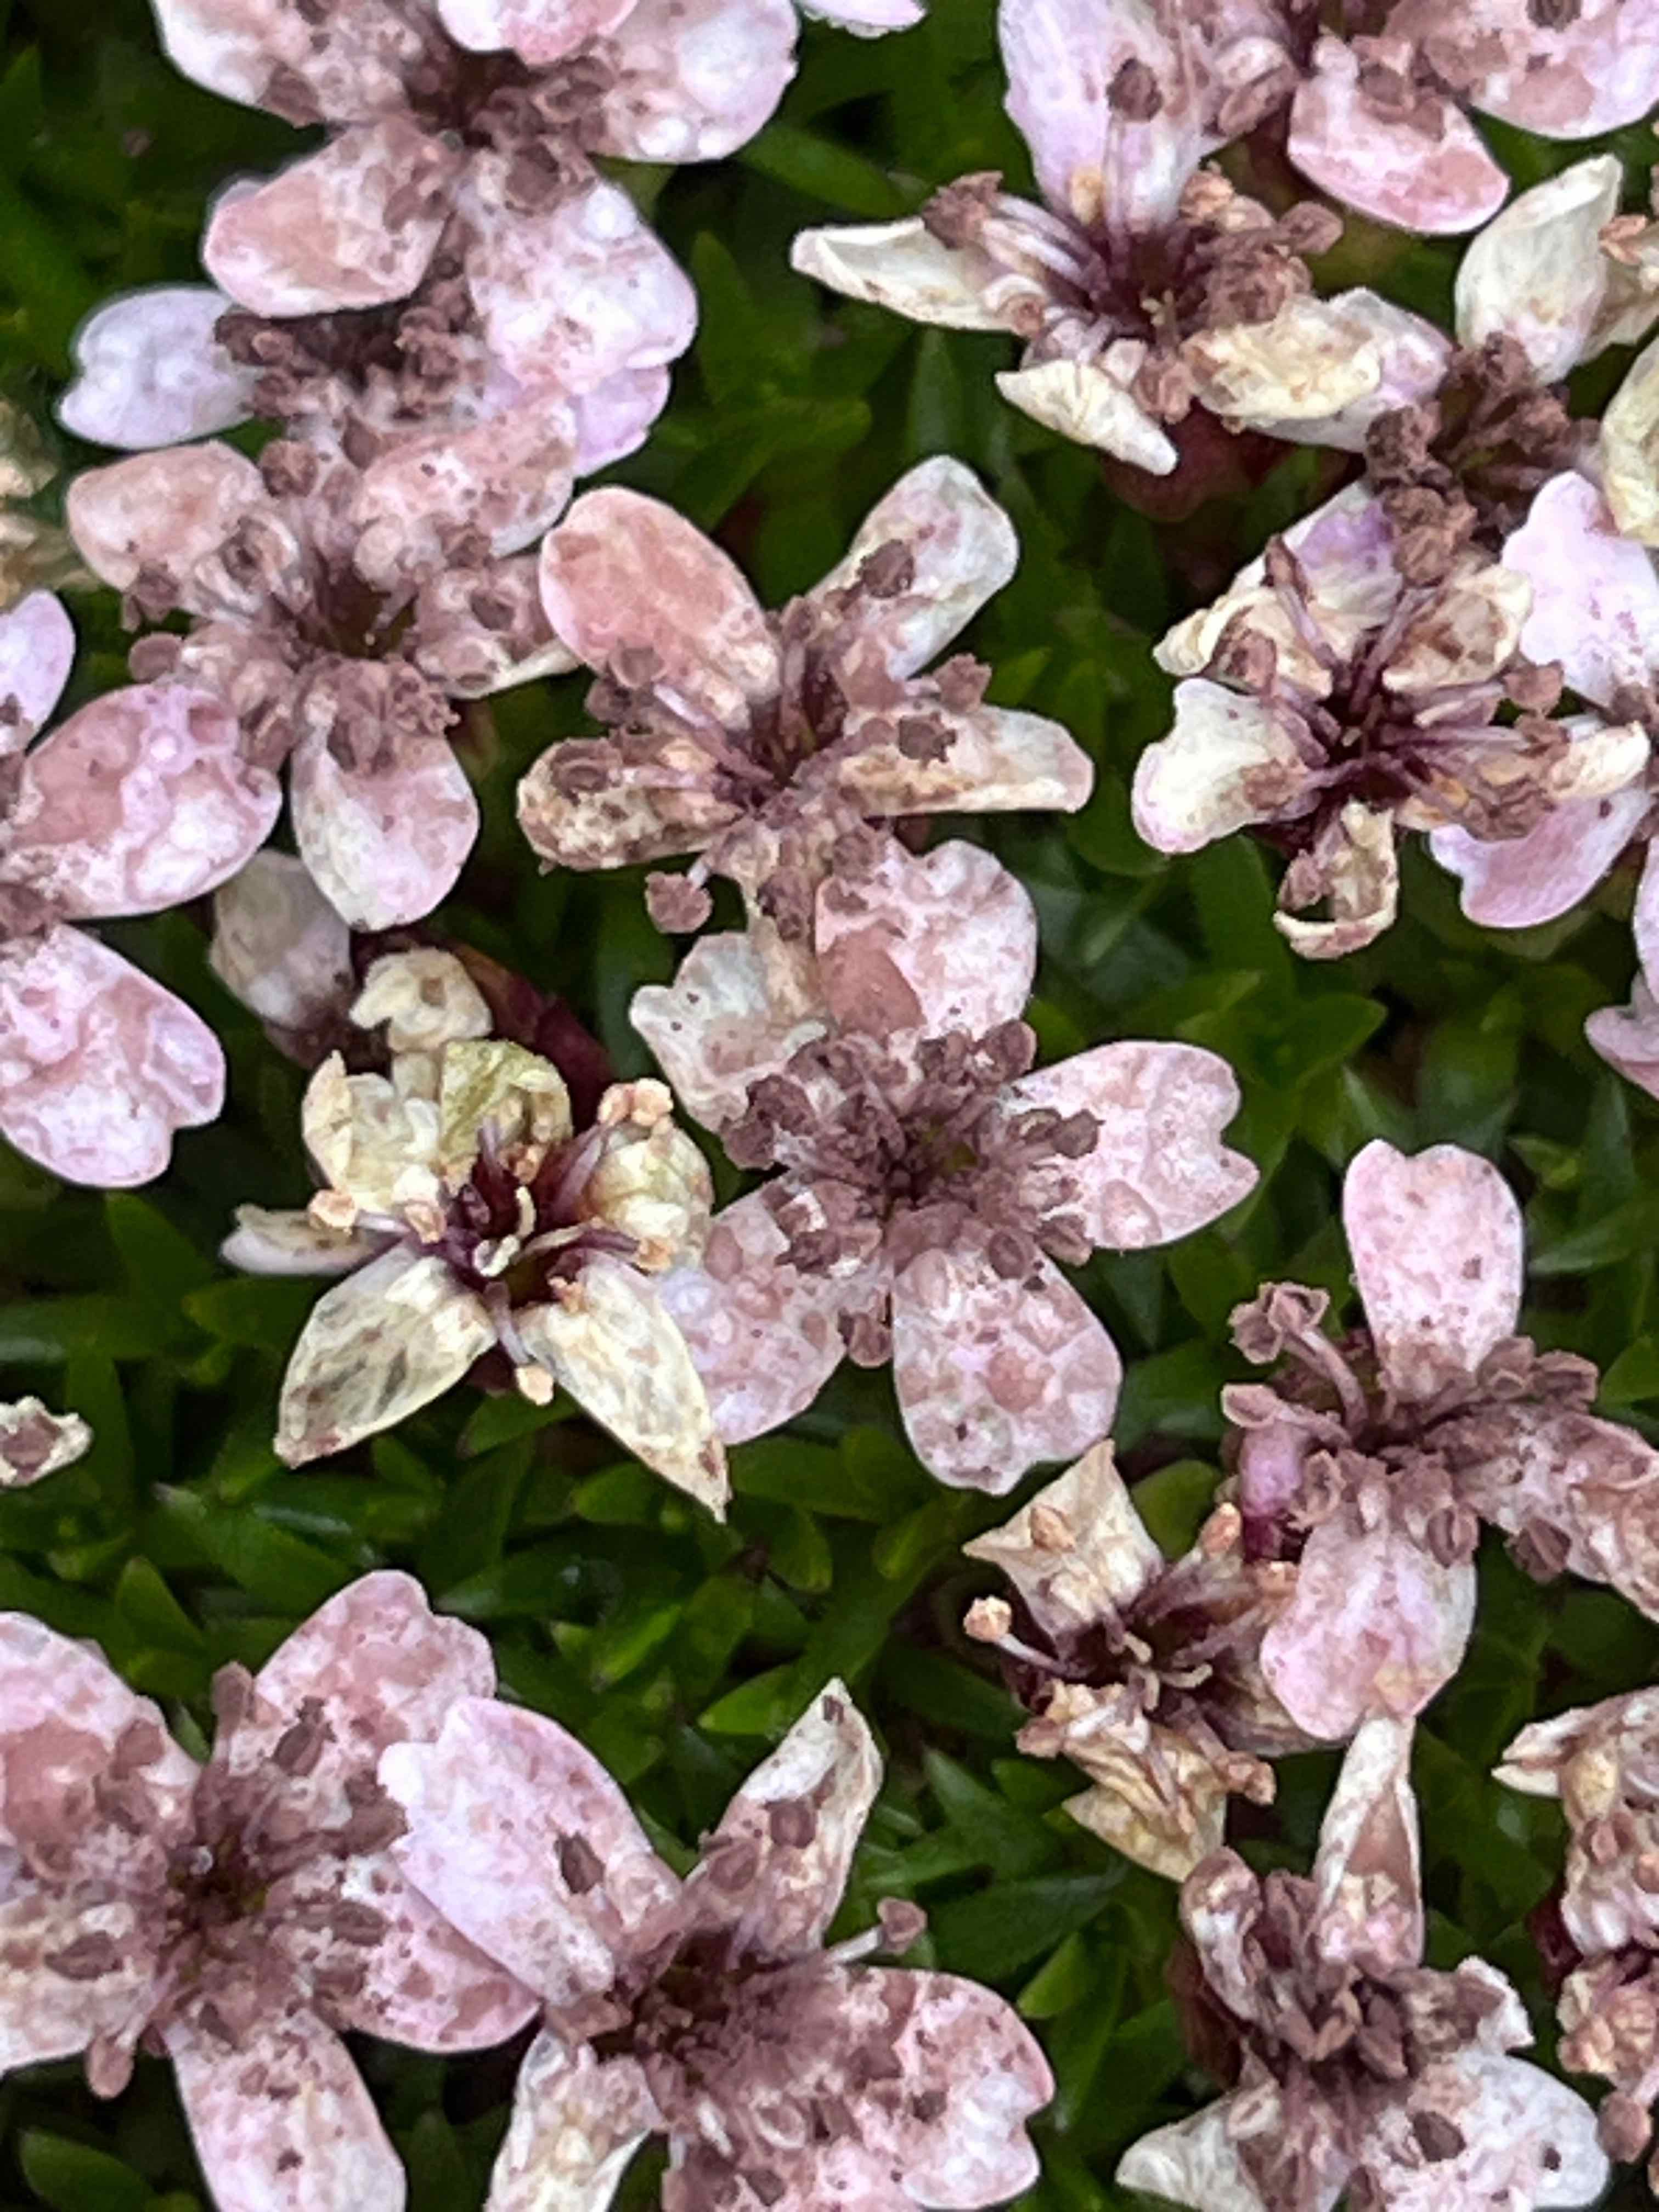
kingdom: Fungi
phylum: Basidiomycota
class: Microbotryomycetes
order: Microbotryales
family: Microbotryaceae
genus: Microbotryum
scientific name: Microbotryum violaceum
